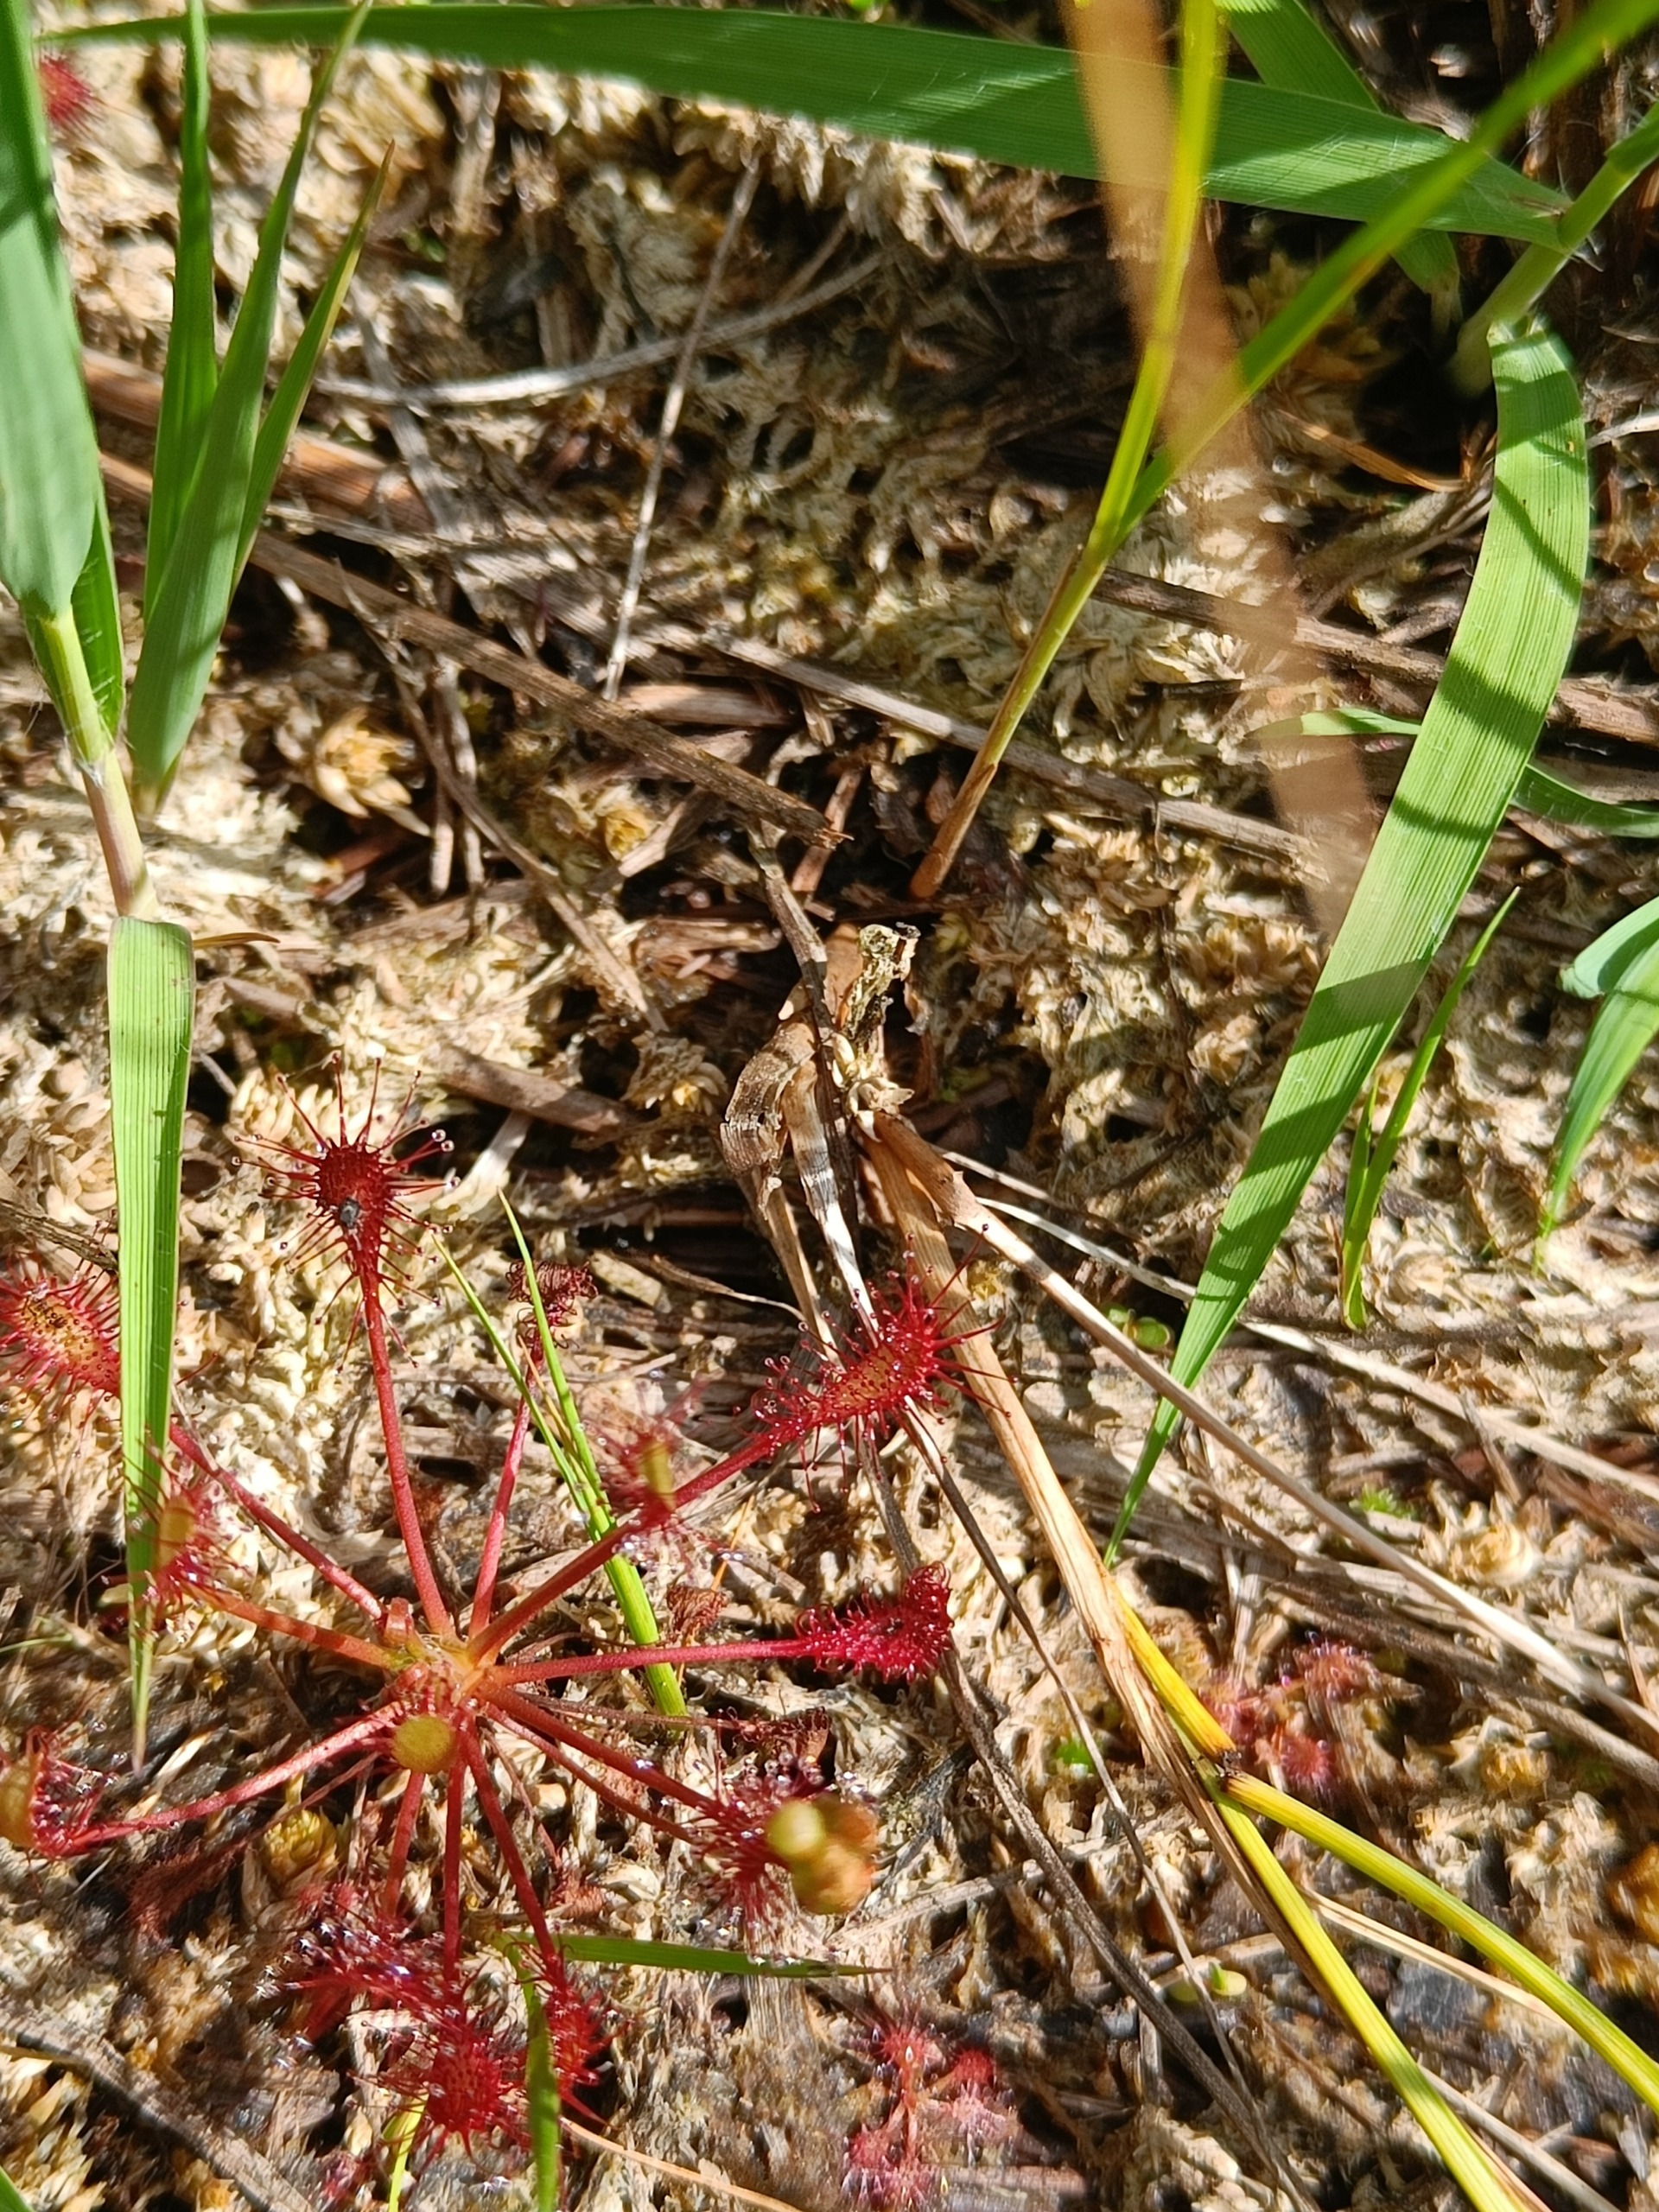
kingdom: Plantae
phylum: Tracheophyta
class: Magnoliopsida
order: Caryophyllales
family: Droseraceae
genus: Drosera
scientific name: Drosera intermedia
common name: Liden soldug
